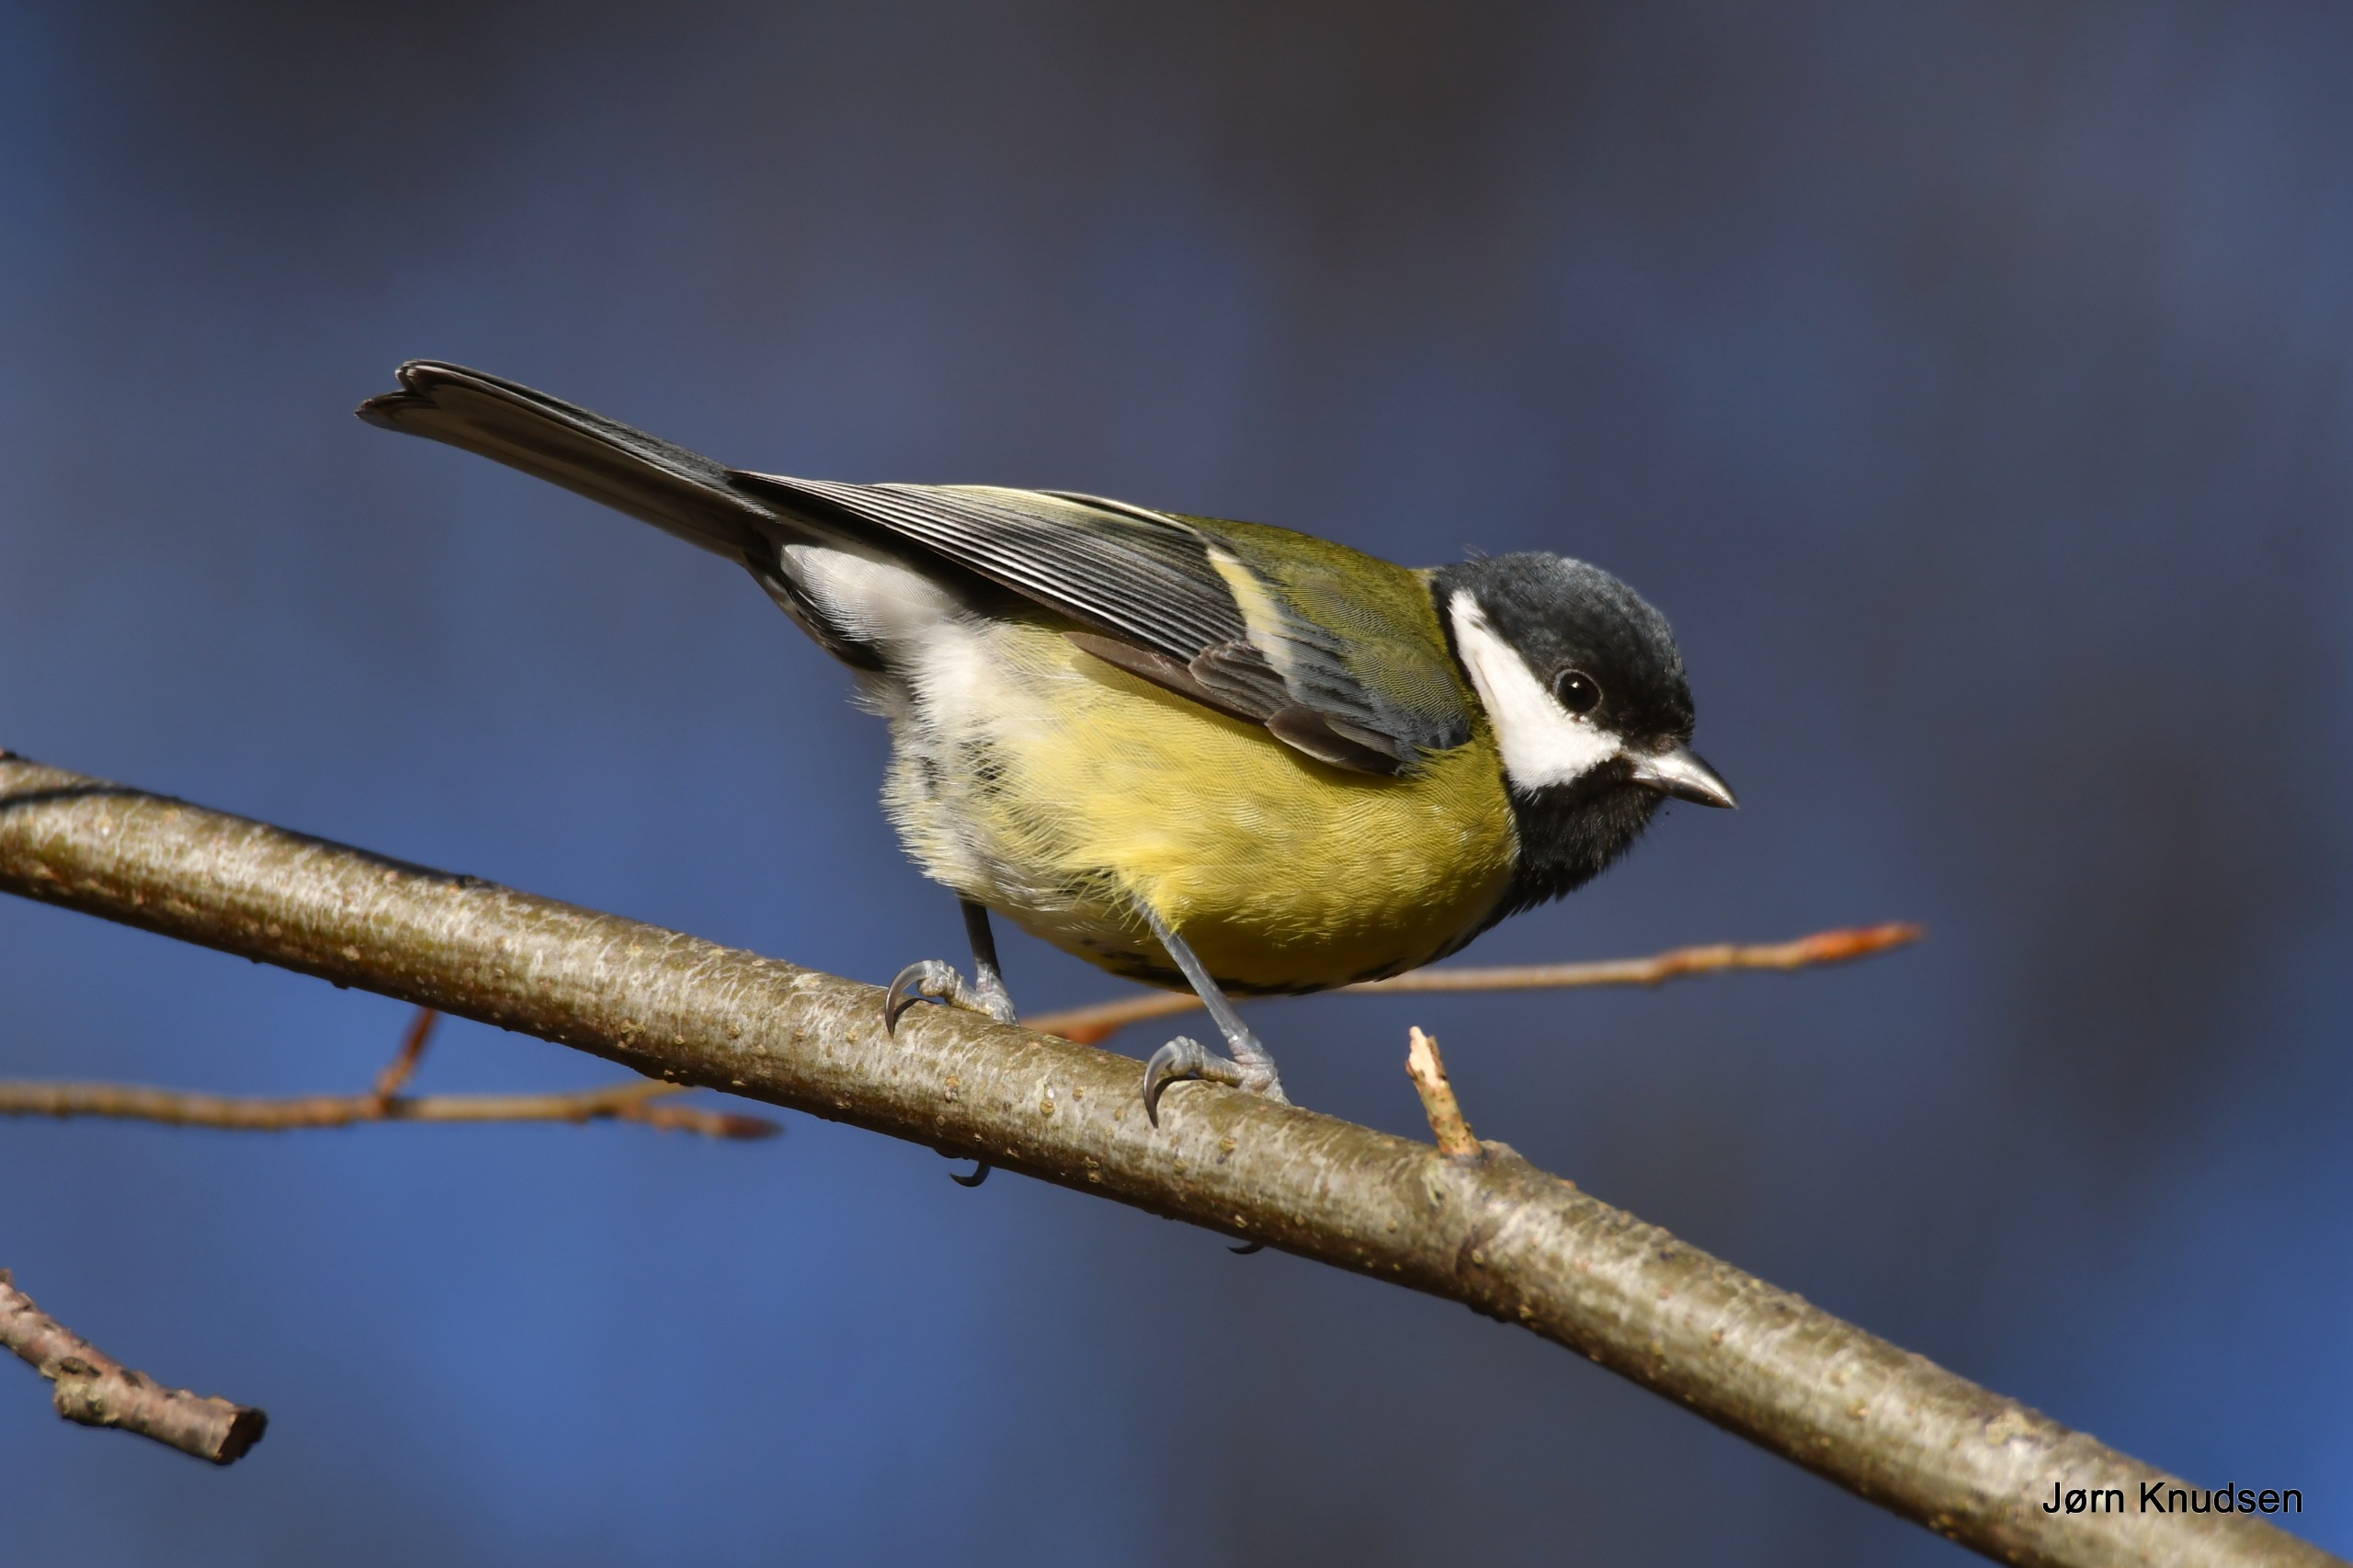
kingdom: Animalia
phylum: Chordata
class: Aves
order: Passeriformes
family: Paridae
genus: Parus
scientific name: Parus major
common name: Musvit
